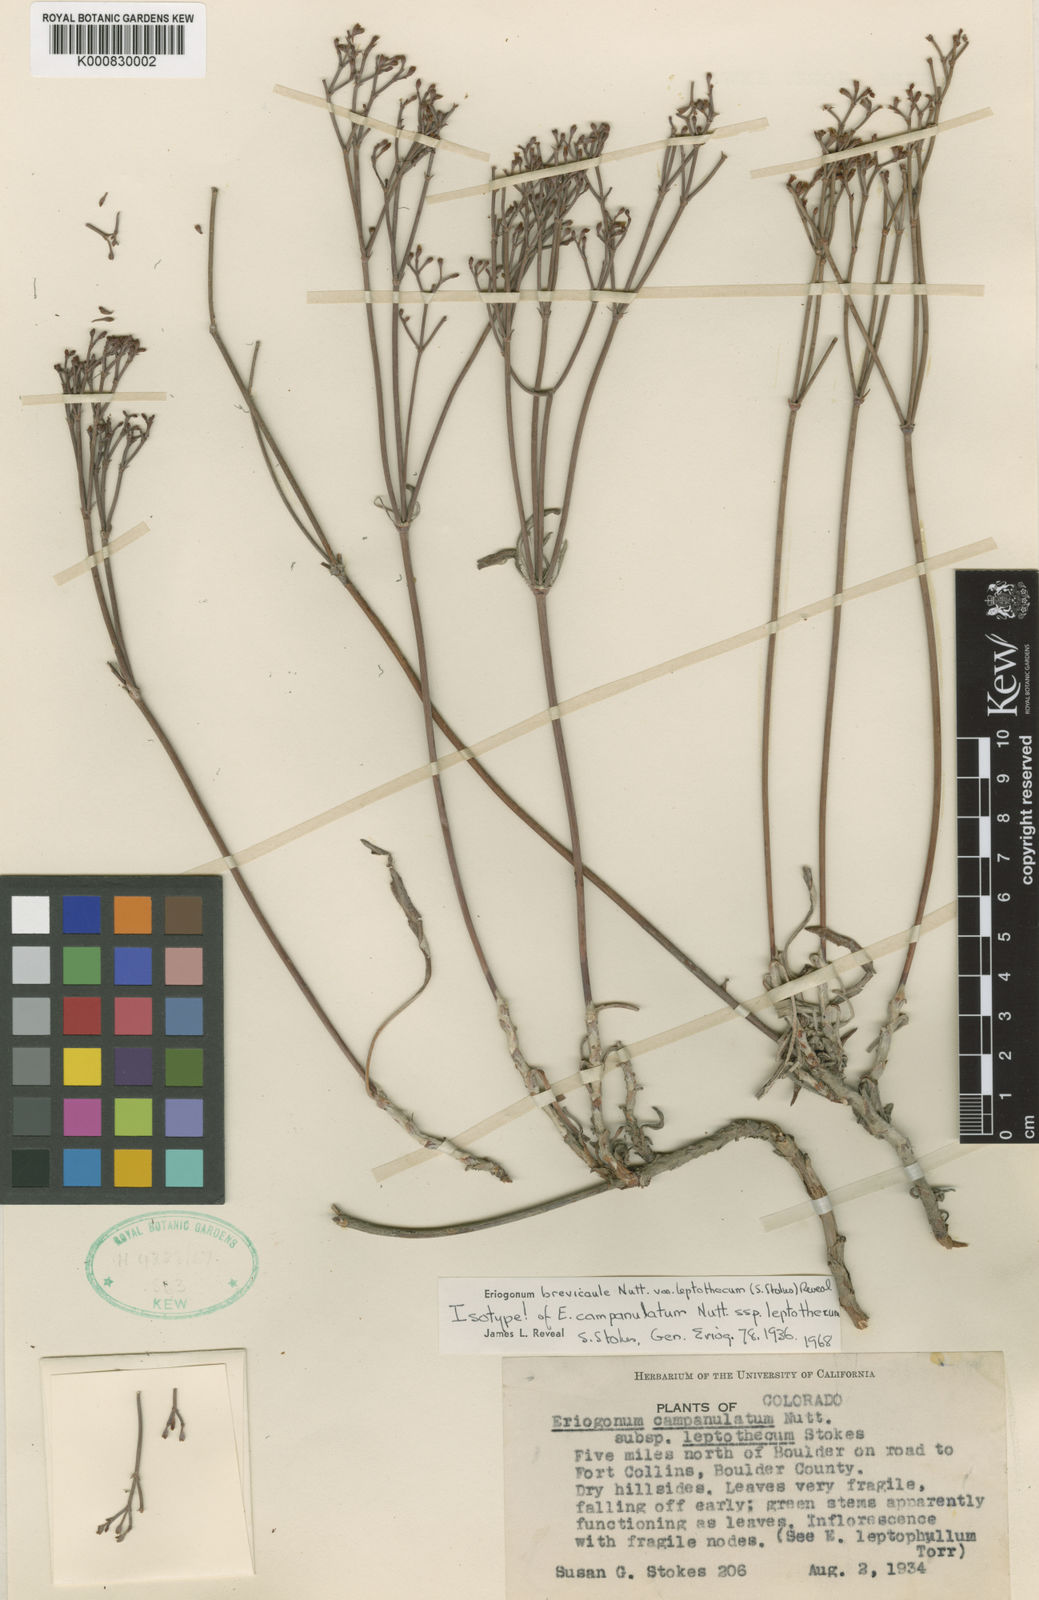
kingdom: Plantae
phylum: Tracheophyta
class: Magnoliopsida
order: Caryophyllales
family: Polygonaceae
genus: Eriogonum
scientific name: Eriogonum brevicaule
